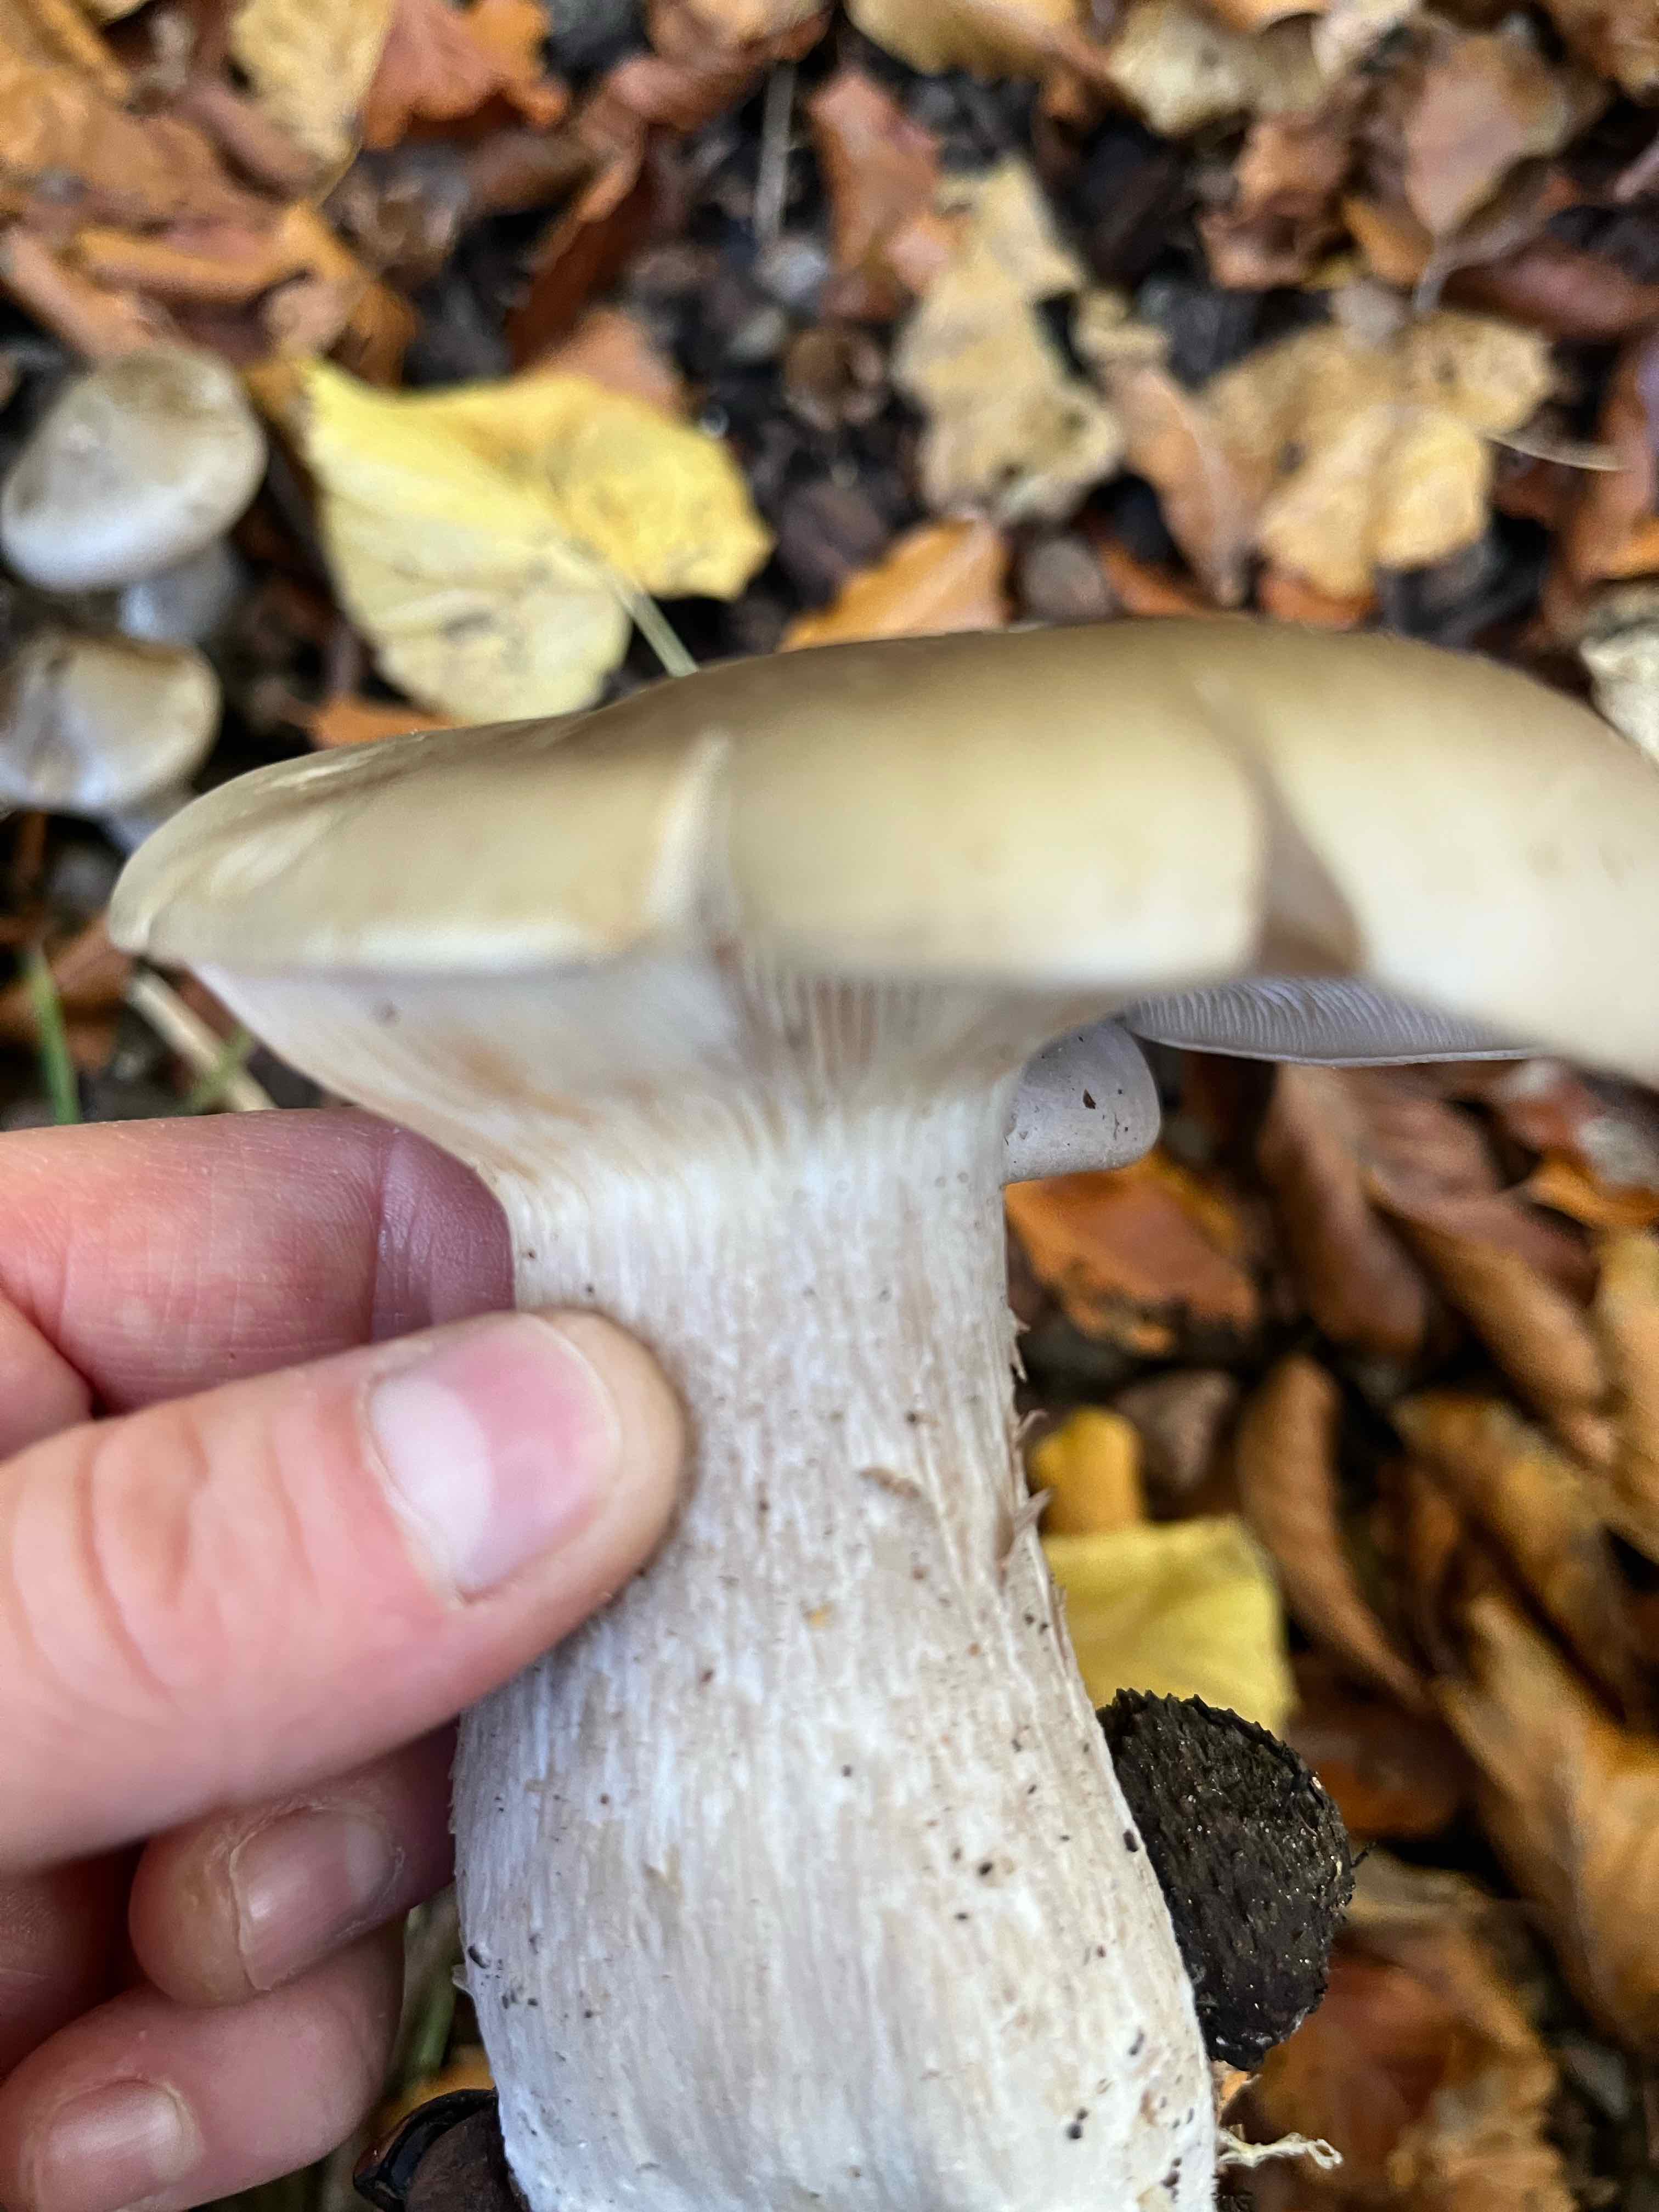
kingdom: Fungi
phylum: Basidiomycota
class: Agaricomycetes
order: Agaricales
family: Tricholomataceae
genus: Clitocybe
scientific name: Clitocybe nebularis
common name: tåge-tragthat
